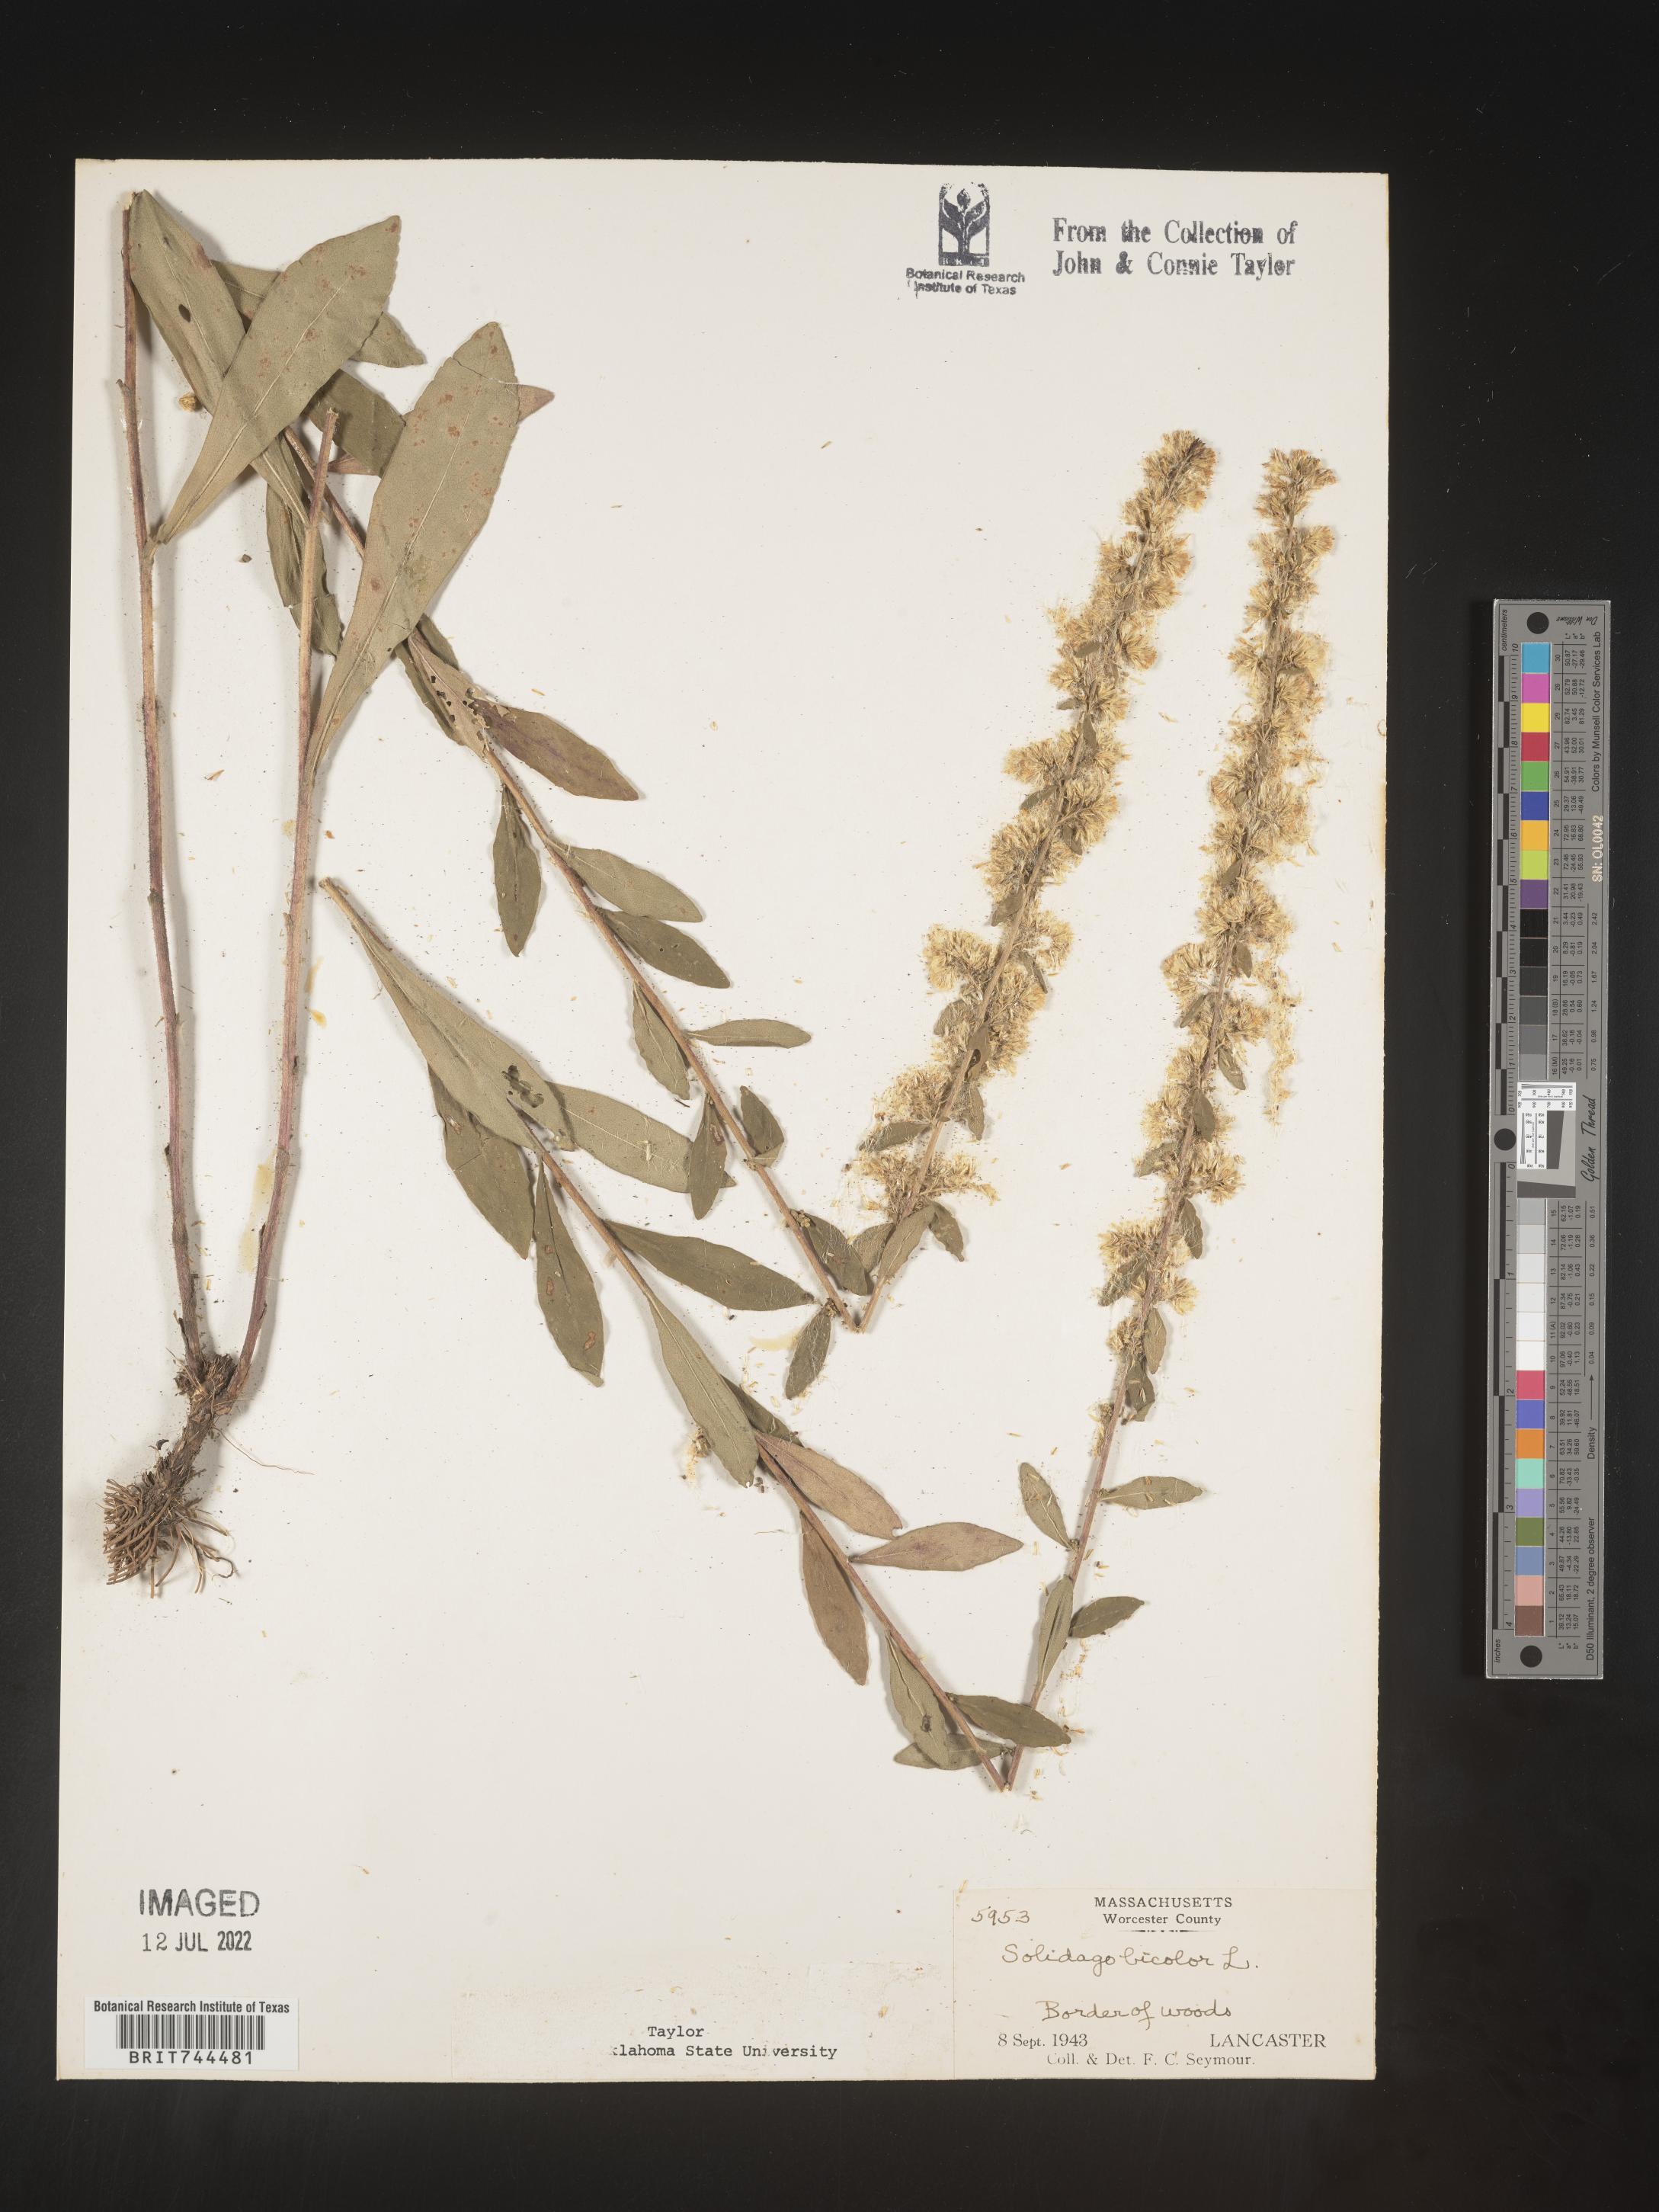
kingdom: Plantae
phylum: Tracheophyta
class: Magnoliopsida
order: Asterales
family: Asteraceae
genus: Solidago
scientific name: Solidago bicolor
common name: Silverrod
